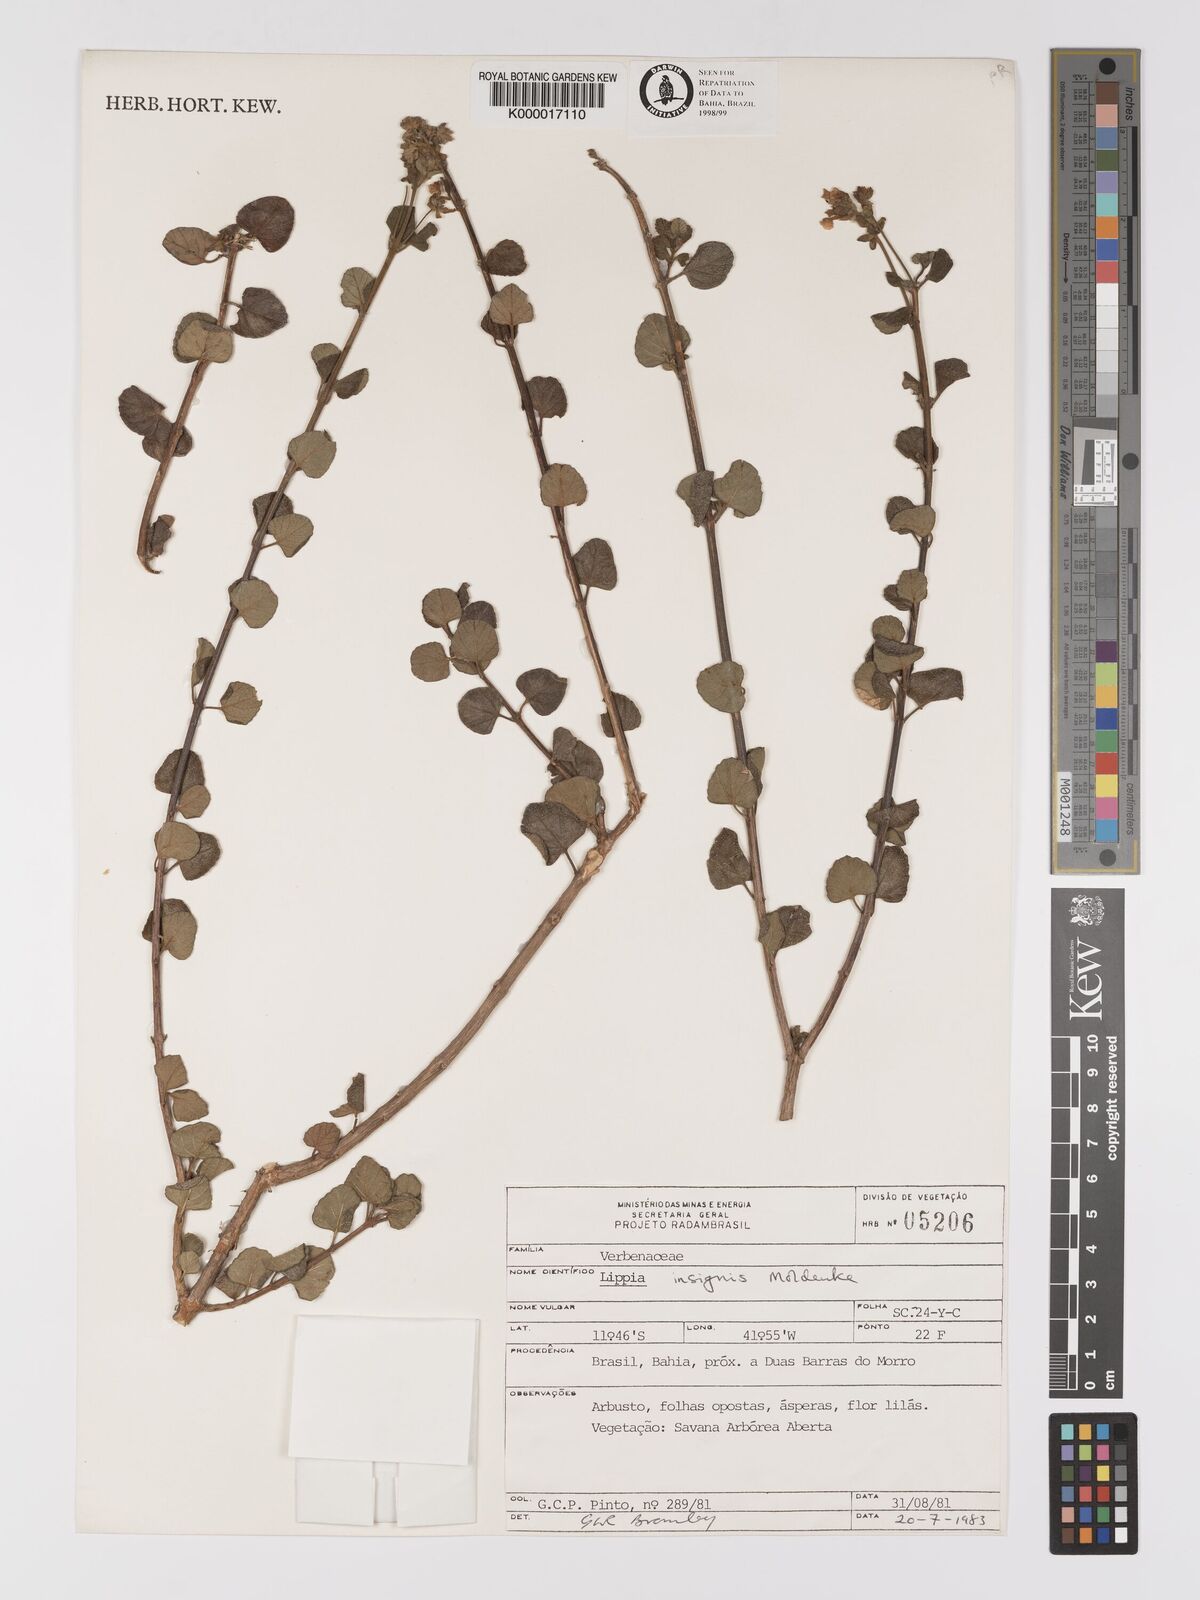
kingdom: Plantae
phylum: Tracheophyta
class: Magnoliopsida
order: Lamiales
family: Verbenaceae
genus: Lippia
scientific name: Lippia insignis
